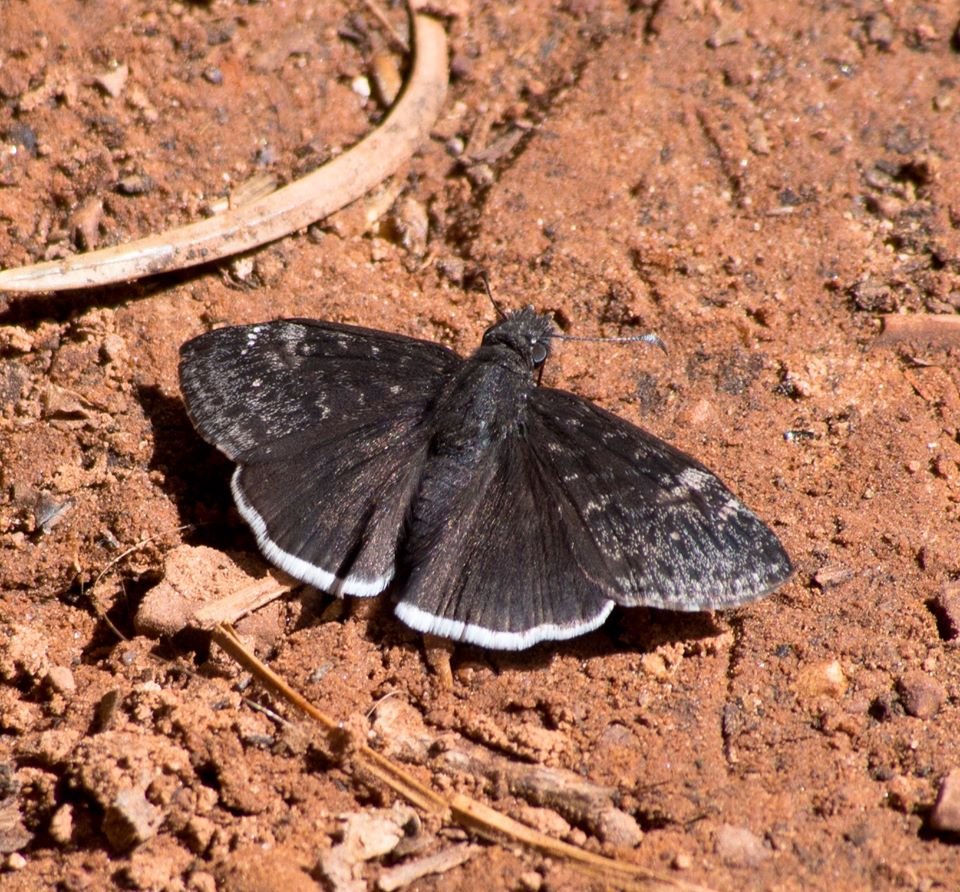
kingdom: Animalia
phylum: Arthropoda
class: Insecta
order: Lepidoptera
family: Hesperiidae
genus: Erynnis
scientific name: Erynnis funeralis
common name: Funereal Duskywing
